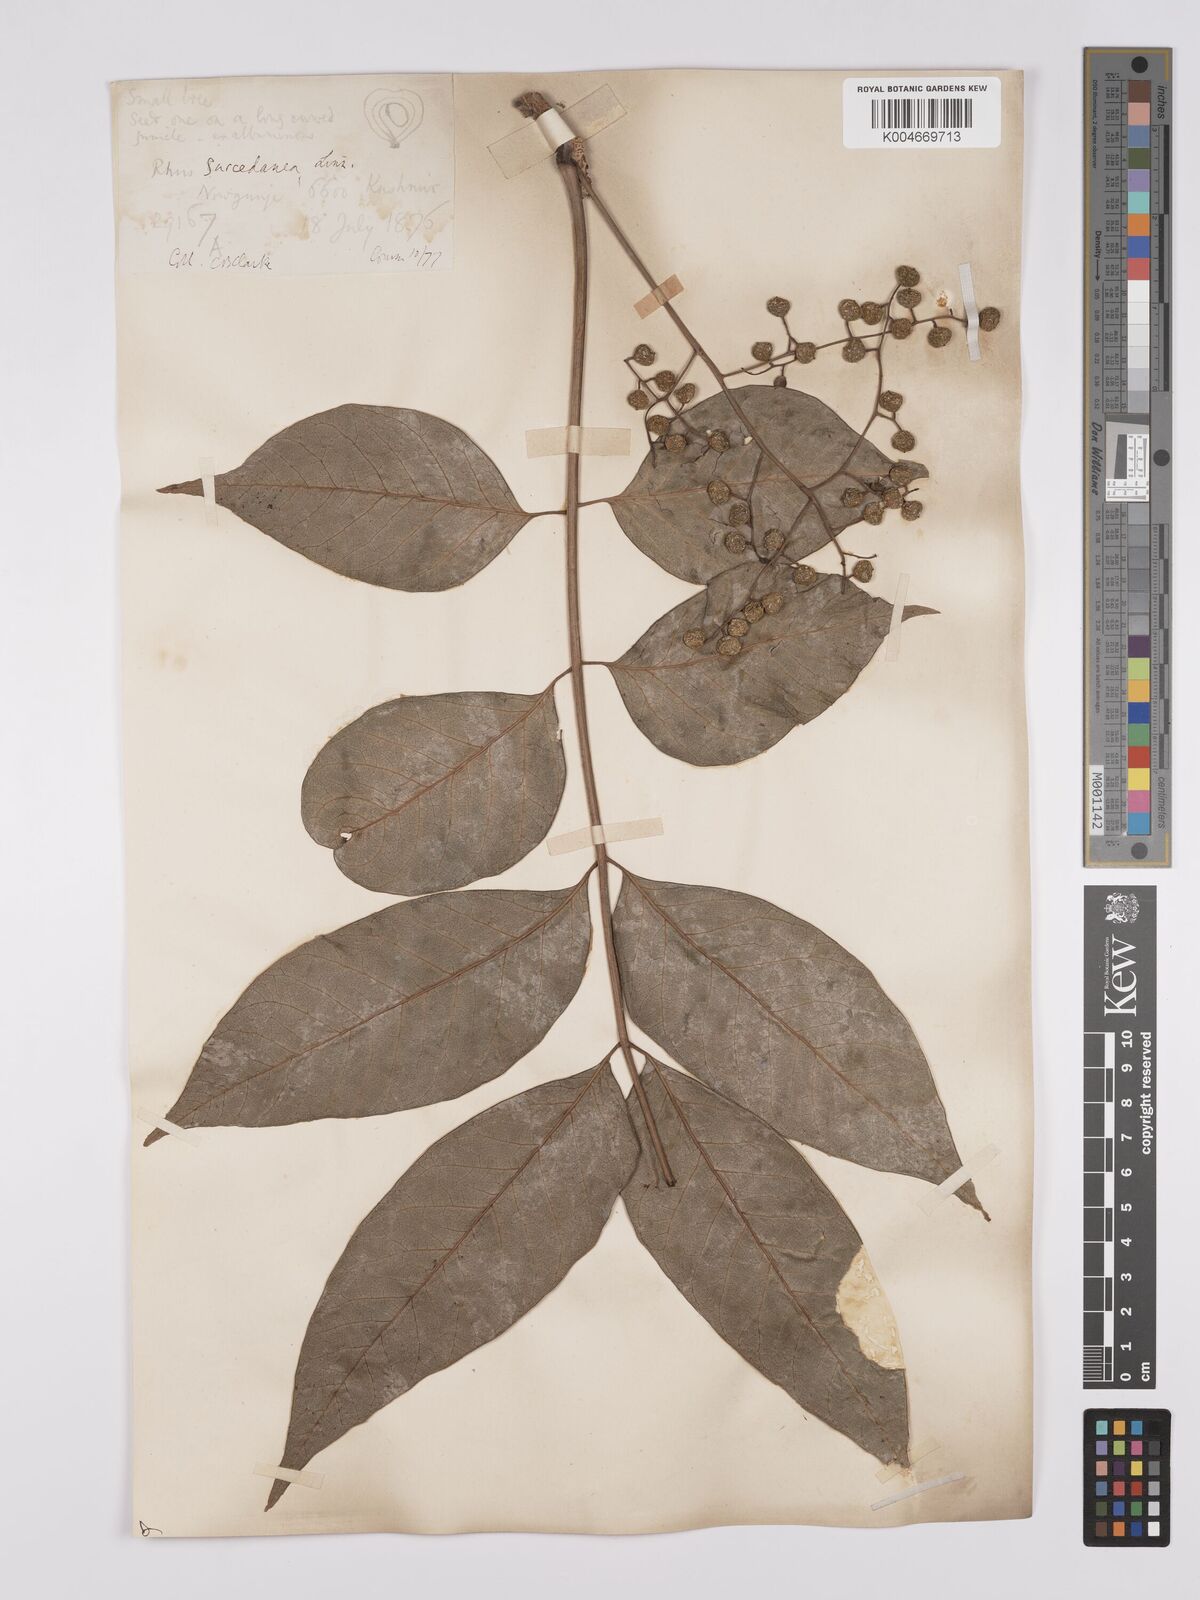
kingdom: Plantae
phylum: Tracheophyta
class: Magnoliopsida
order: Sapindales
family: Anacardiaceae
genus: Toxicodendron
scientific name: Toxicodendron succedaneum
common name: Wax tree
